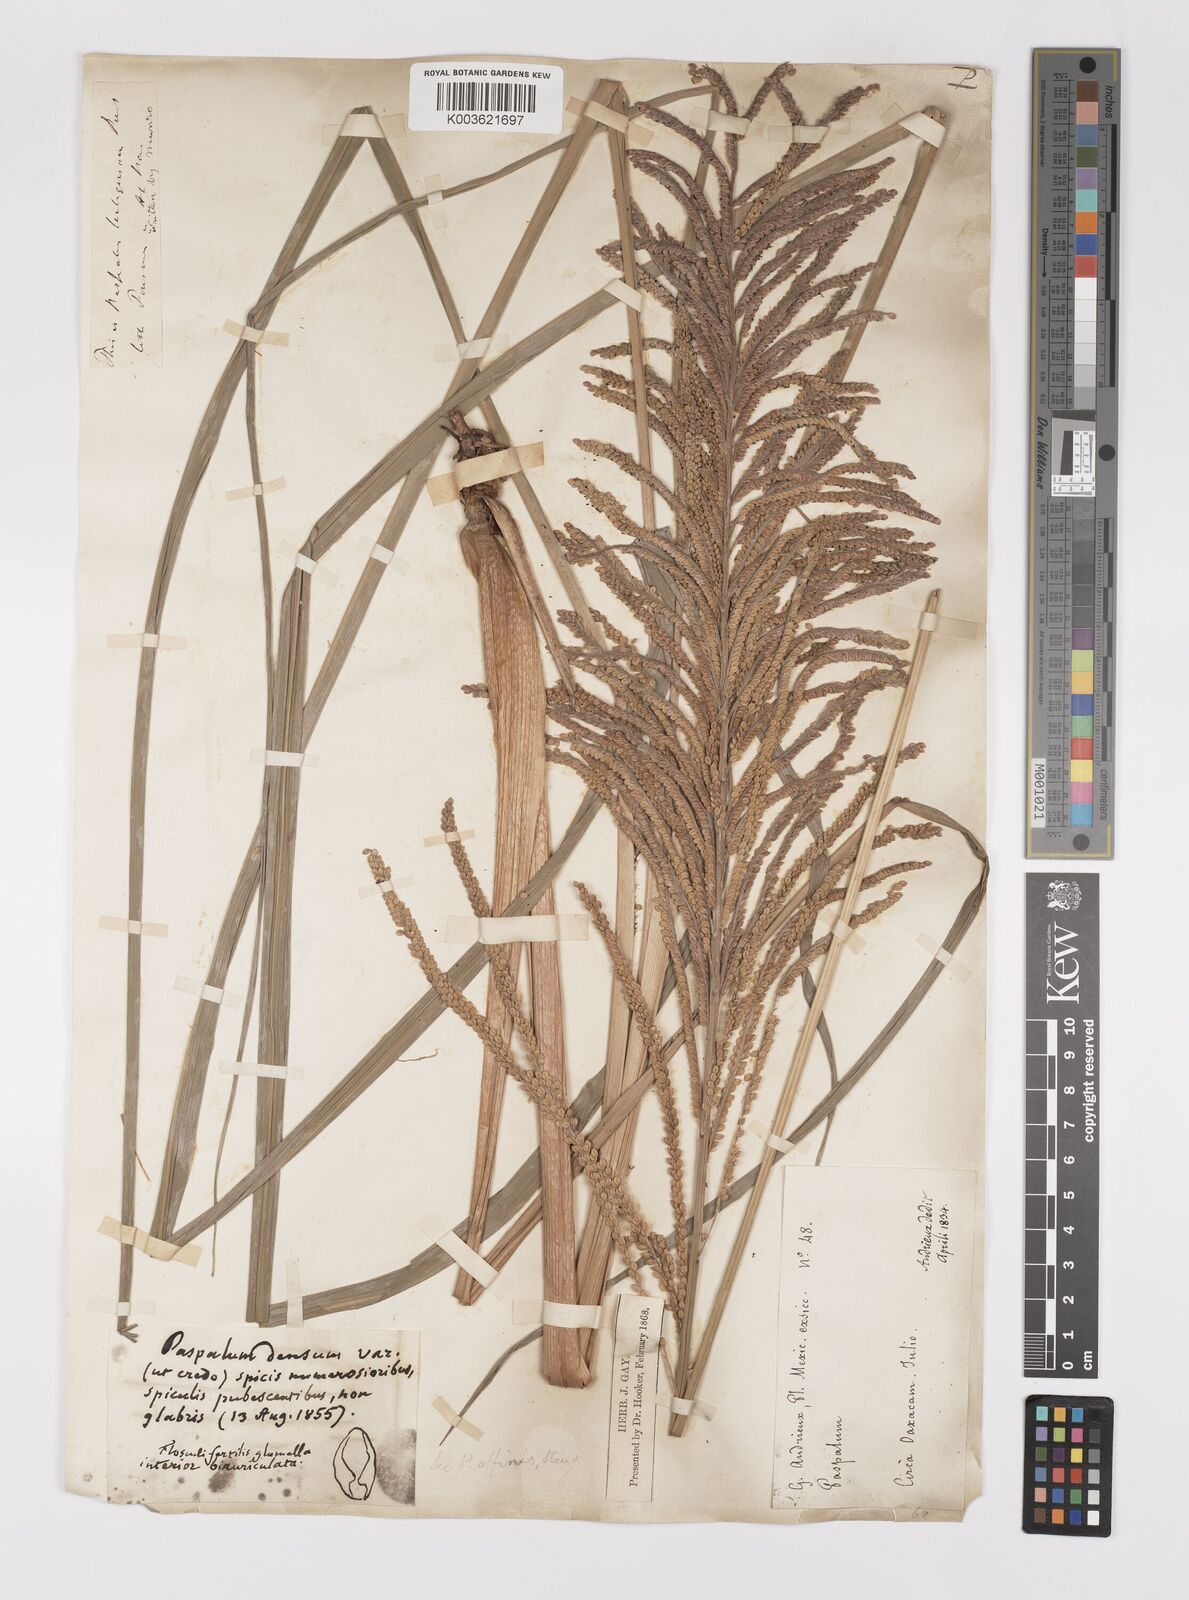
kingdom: Plantae
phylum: Tracheophyta
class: Liliopsida
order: Poales
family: Poaceae
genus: Paspalum
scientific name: Paspalum plenum
